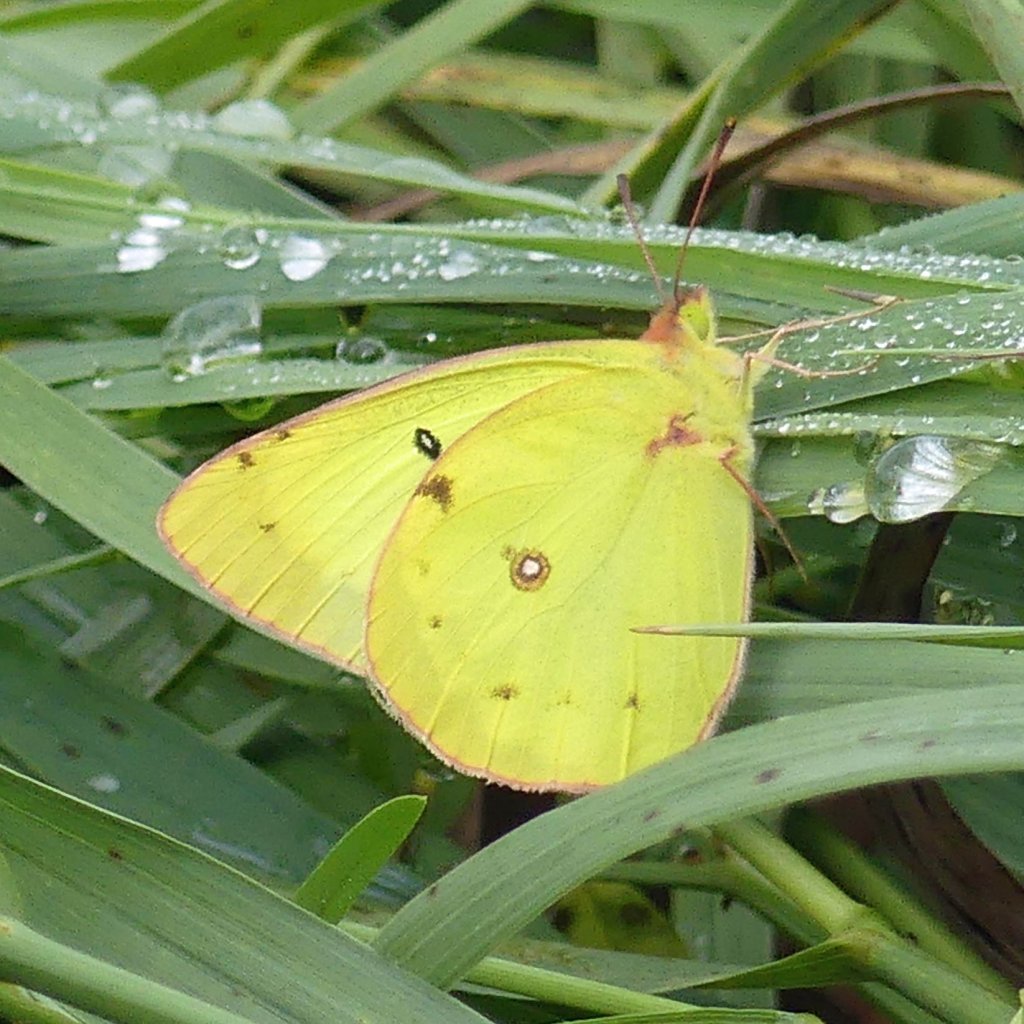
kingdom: Animalia
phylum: Arthropoda
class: Insecta
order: Lepidoptera
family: Pieridae
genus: Colias
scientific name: Colias philodice
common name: Clouded Sulphur
